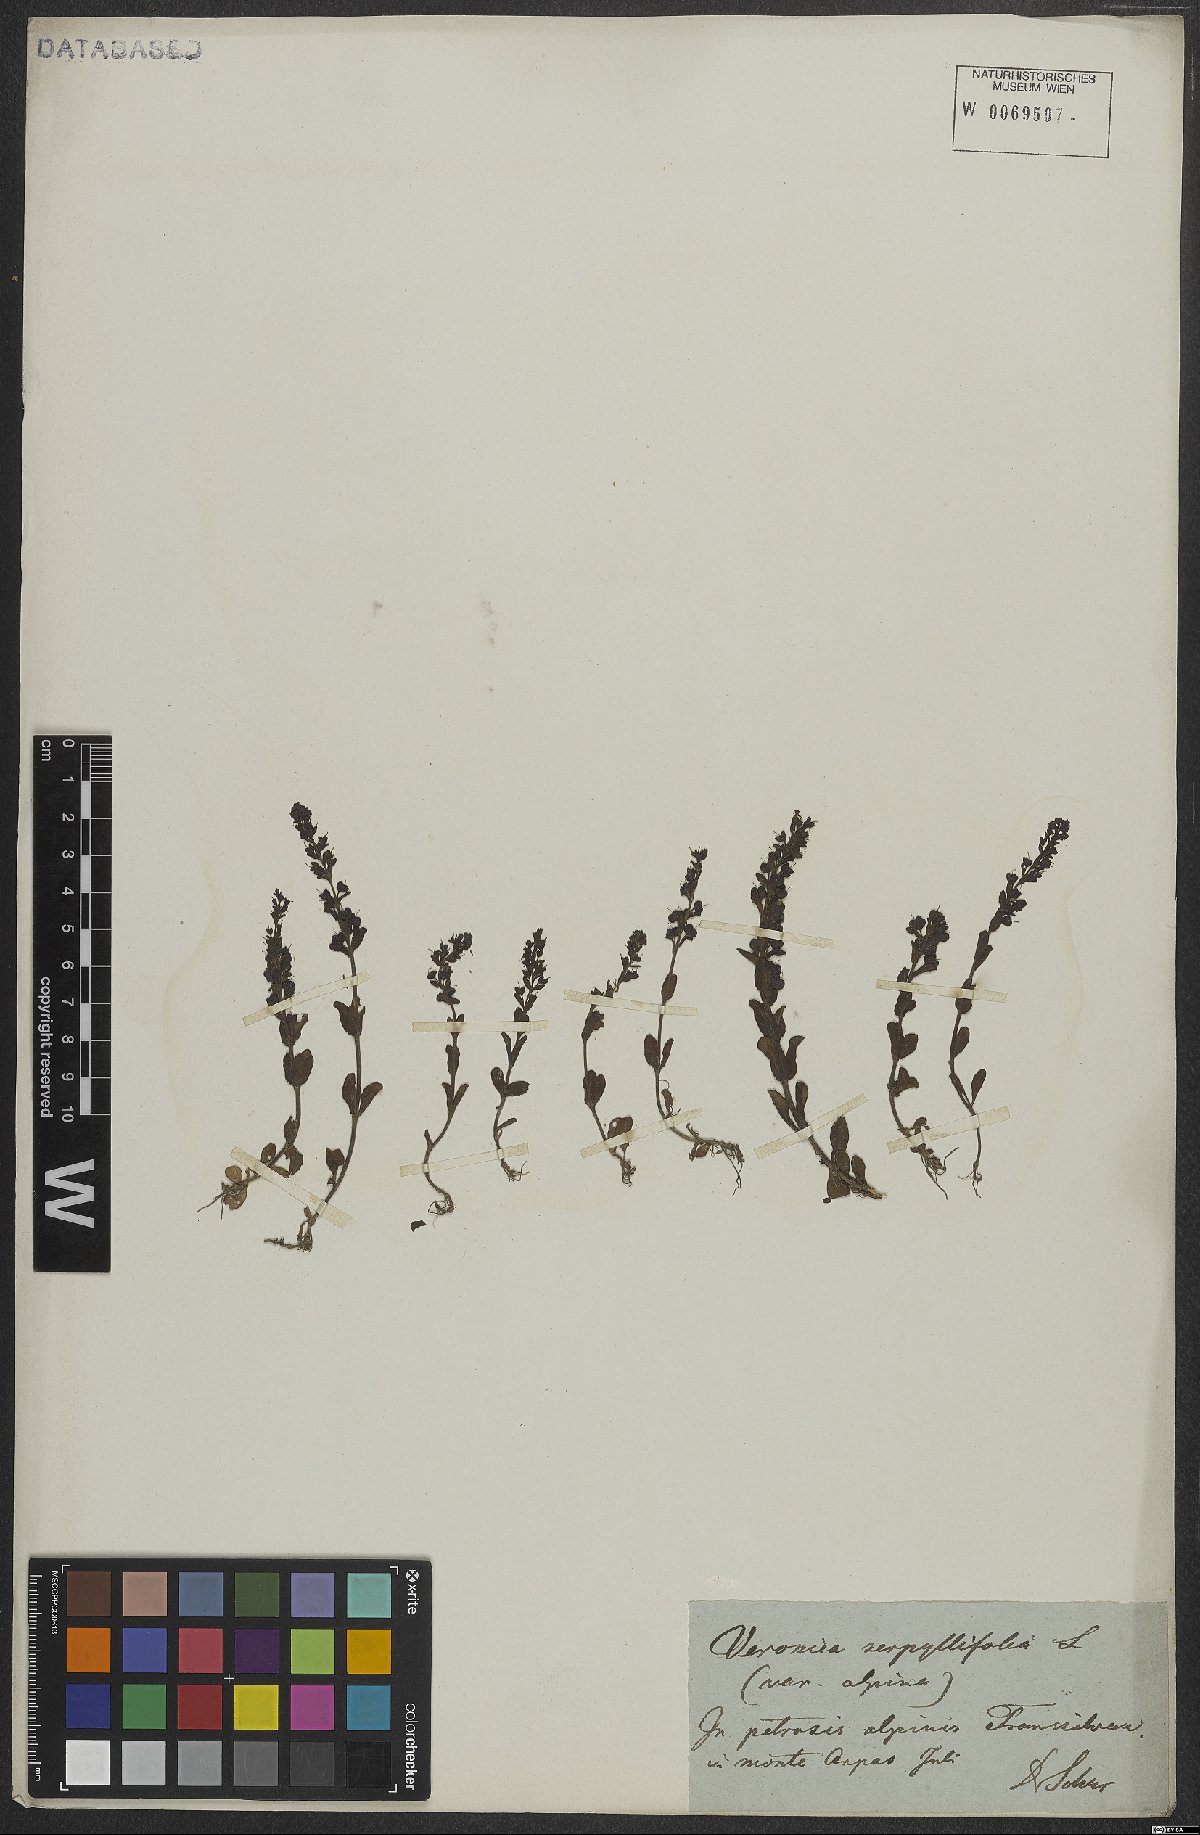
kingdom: Plantae
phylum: Tracheophyta
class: Magnoliopsida
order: Lamiales
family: Plantaginaceae
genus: Veronica
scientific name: Veronica serpyllifolia
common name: Thyme-leaved speedwell
